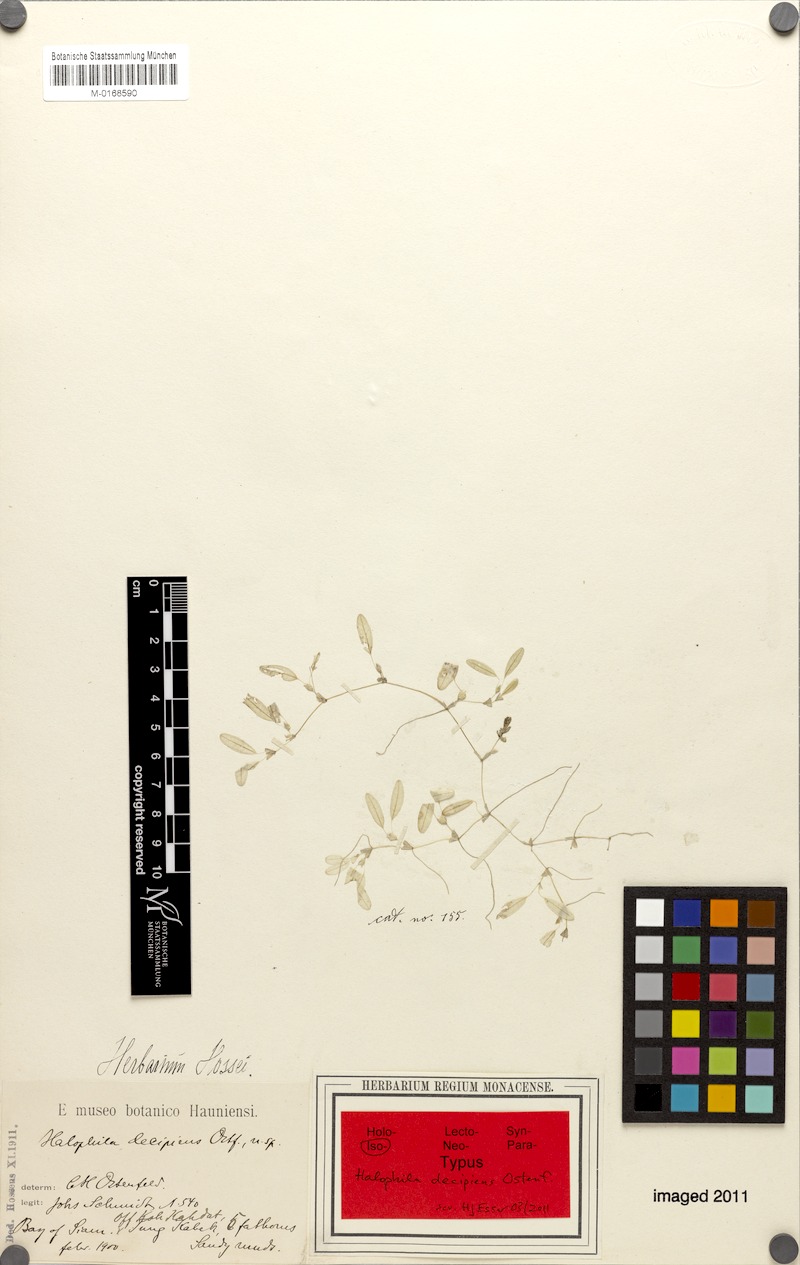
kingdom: Plantae
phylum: Tracheophyta
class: Liliopsida
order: Alismatales
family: Hydrocharitaceae
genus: Halophila
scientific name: Halophila decipiens
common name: Paddle grass
